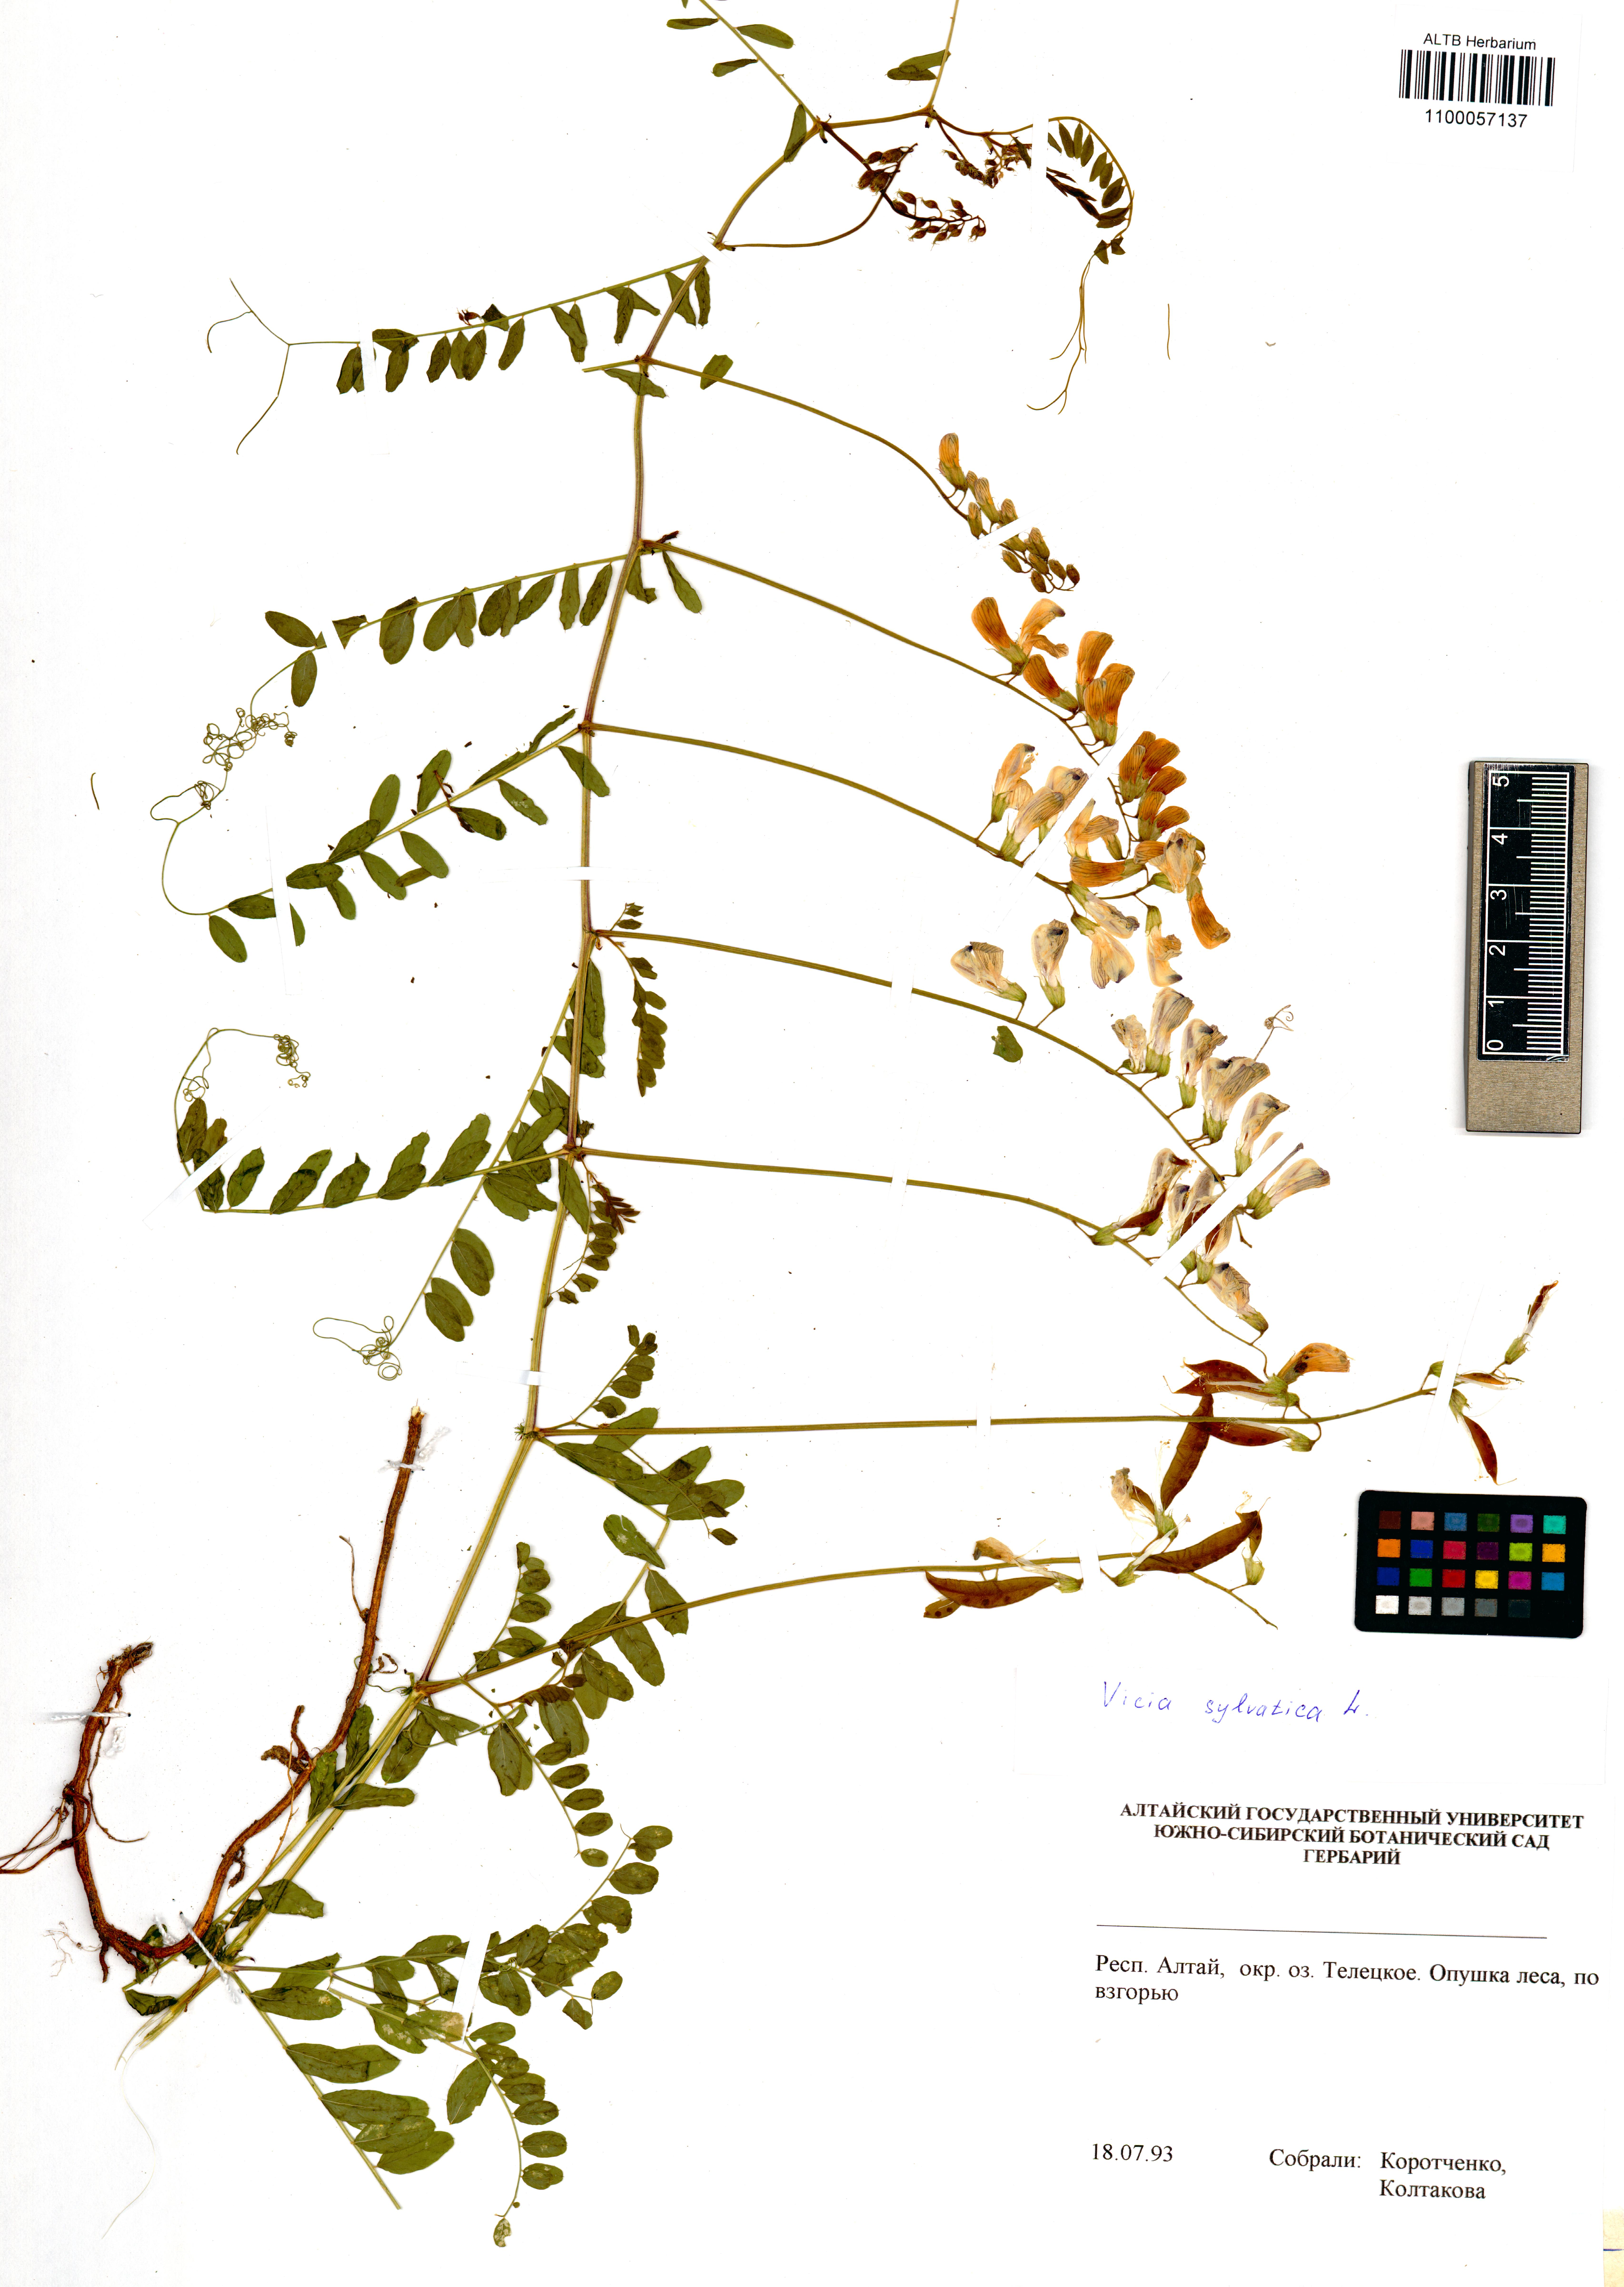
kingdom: Plantae
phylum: Tracheophyta
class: Magnoliopsida
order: Fabales
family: Fabaceae
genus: Vicia
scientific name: Vicia sylvatica
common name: Wood vetch
